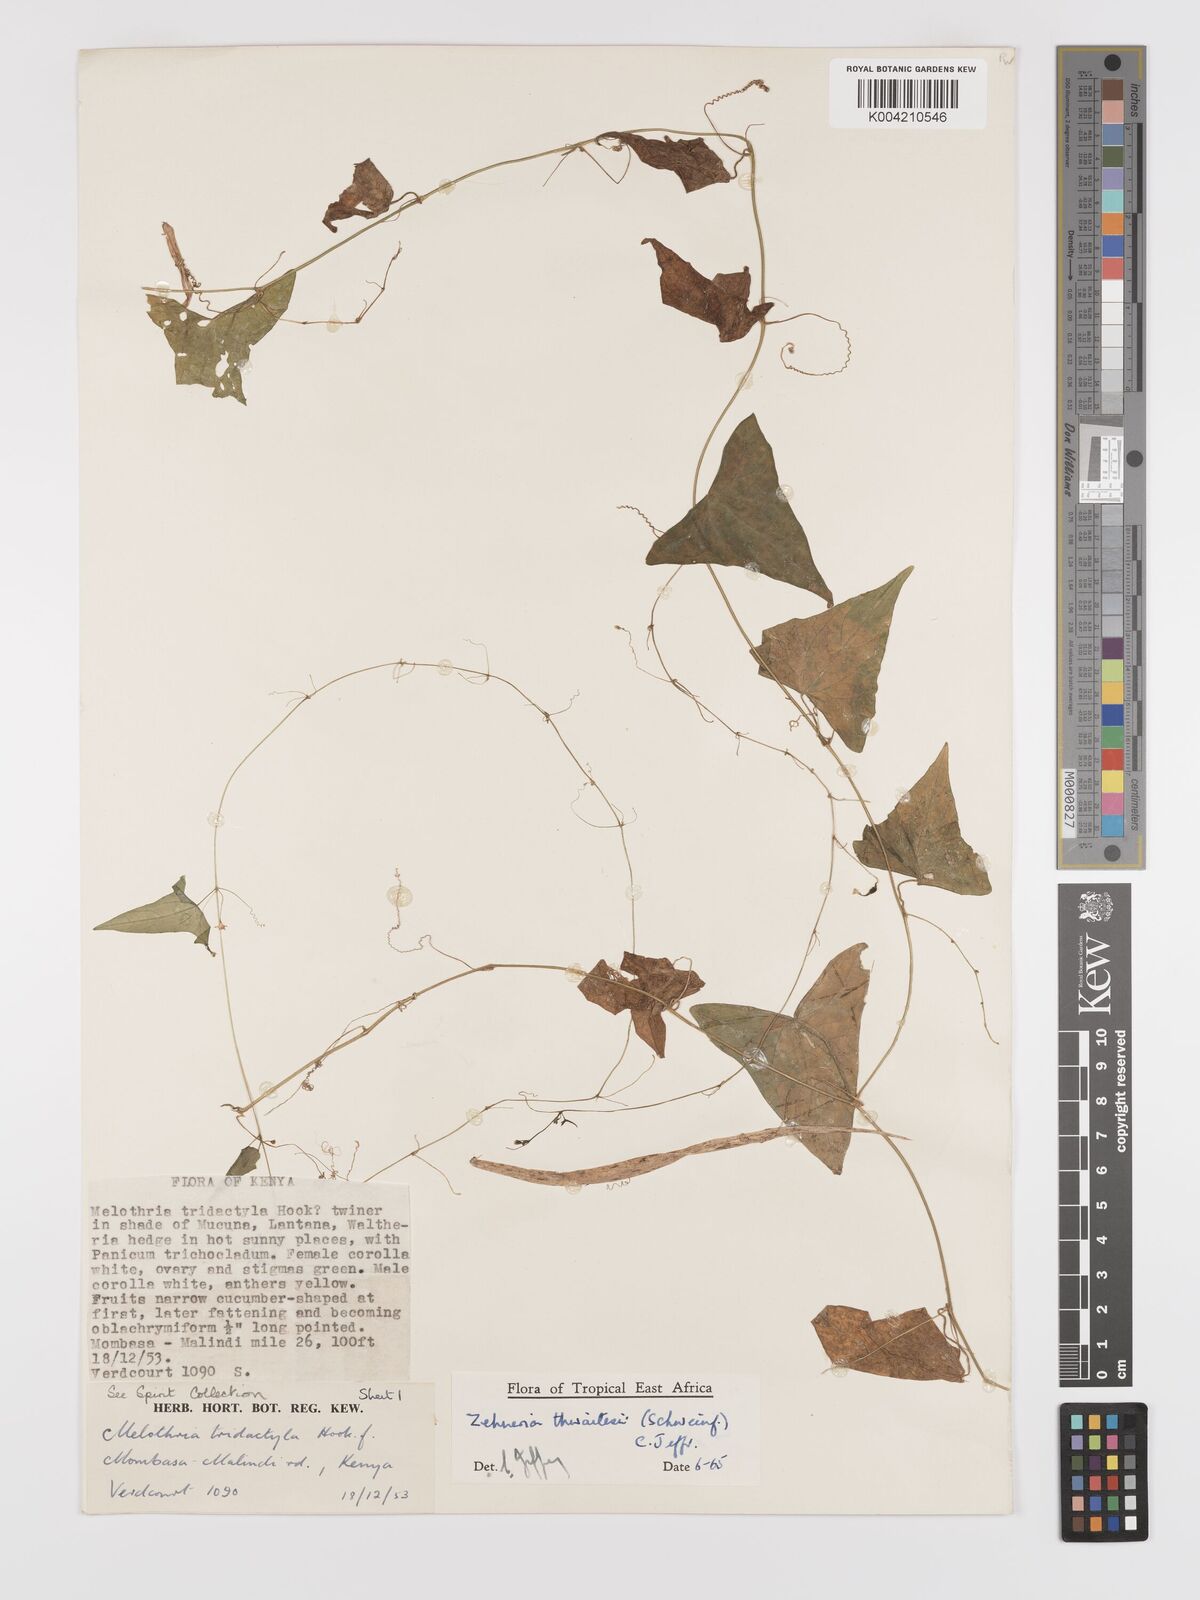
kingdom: Plantae
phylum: Tracheophyta
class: Magnoliopsida
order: Cucurbitales
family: Cucurbitaceae
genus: Zehneria
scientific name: Zehneria thwaitesii
